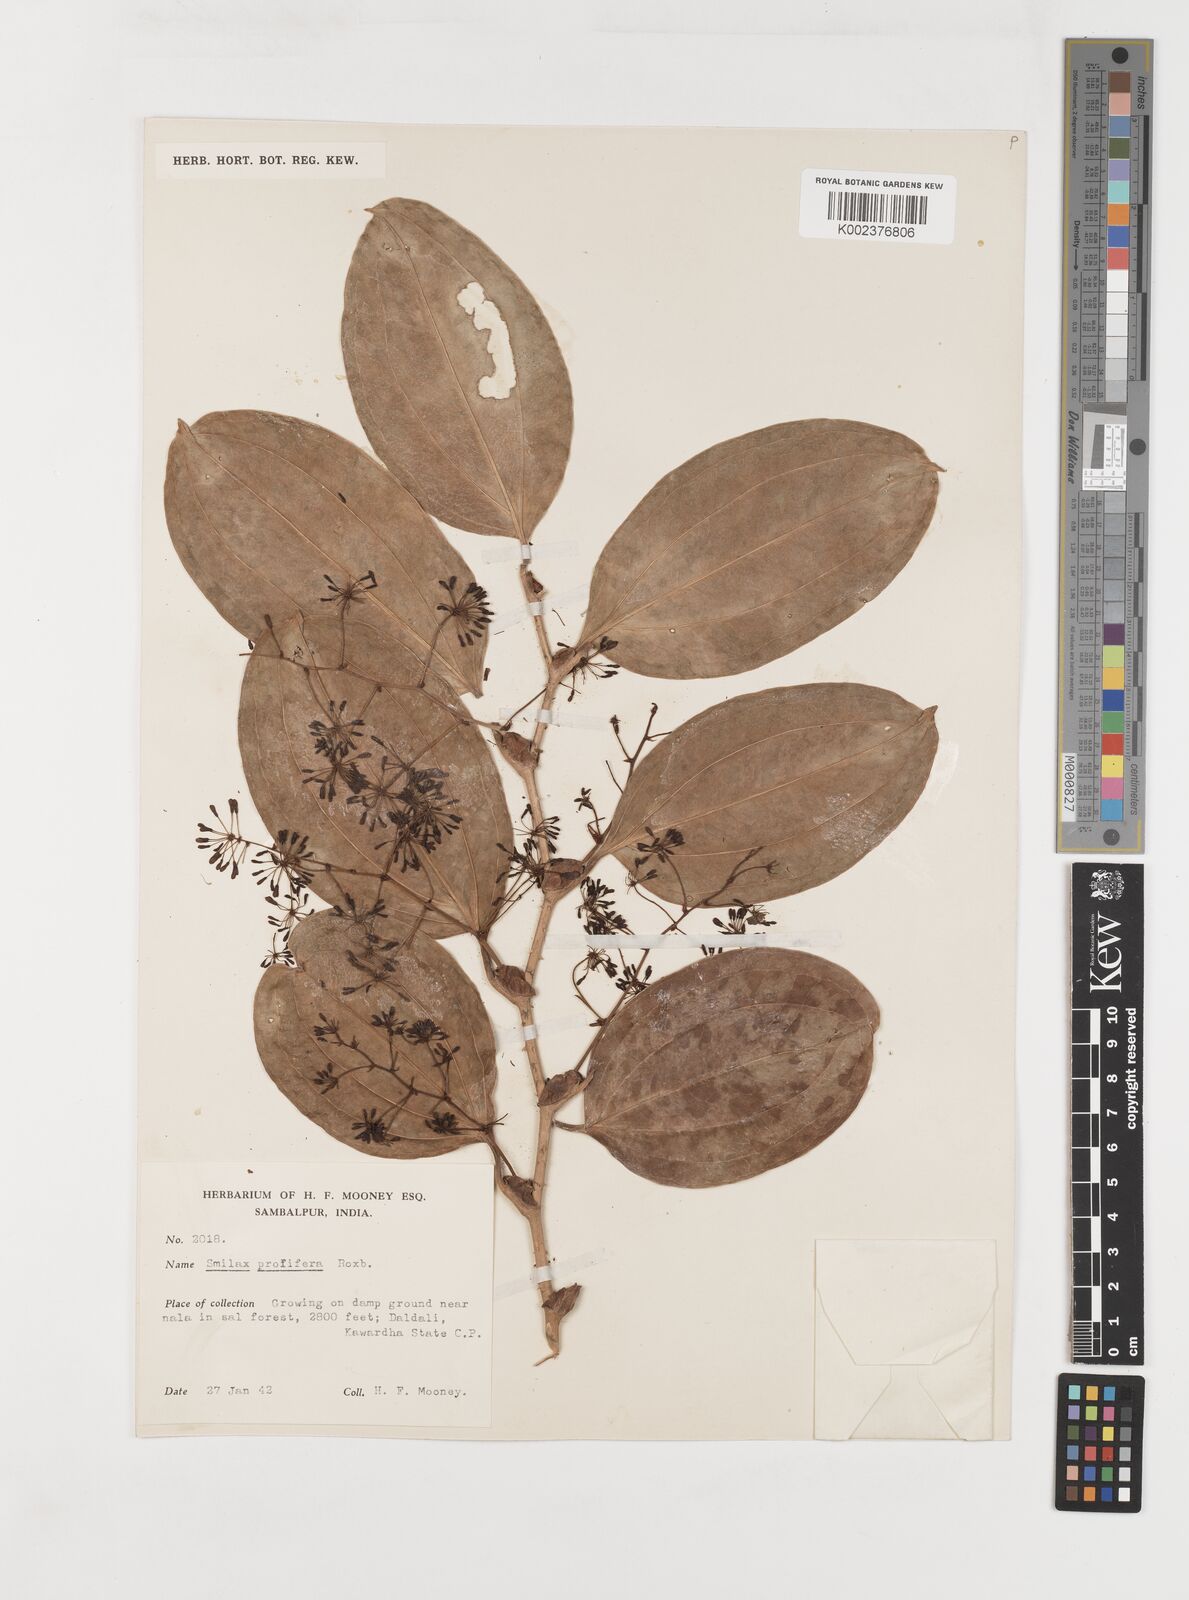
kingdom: Plantae
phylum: Tracheophyta
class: Liliopsida
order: Liliales
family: Smilacaceae
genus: Smilax
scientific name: Smilax prolifera
